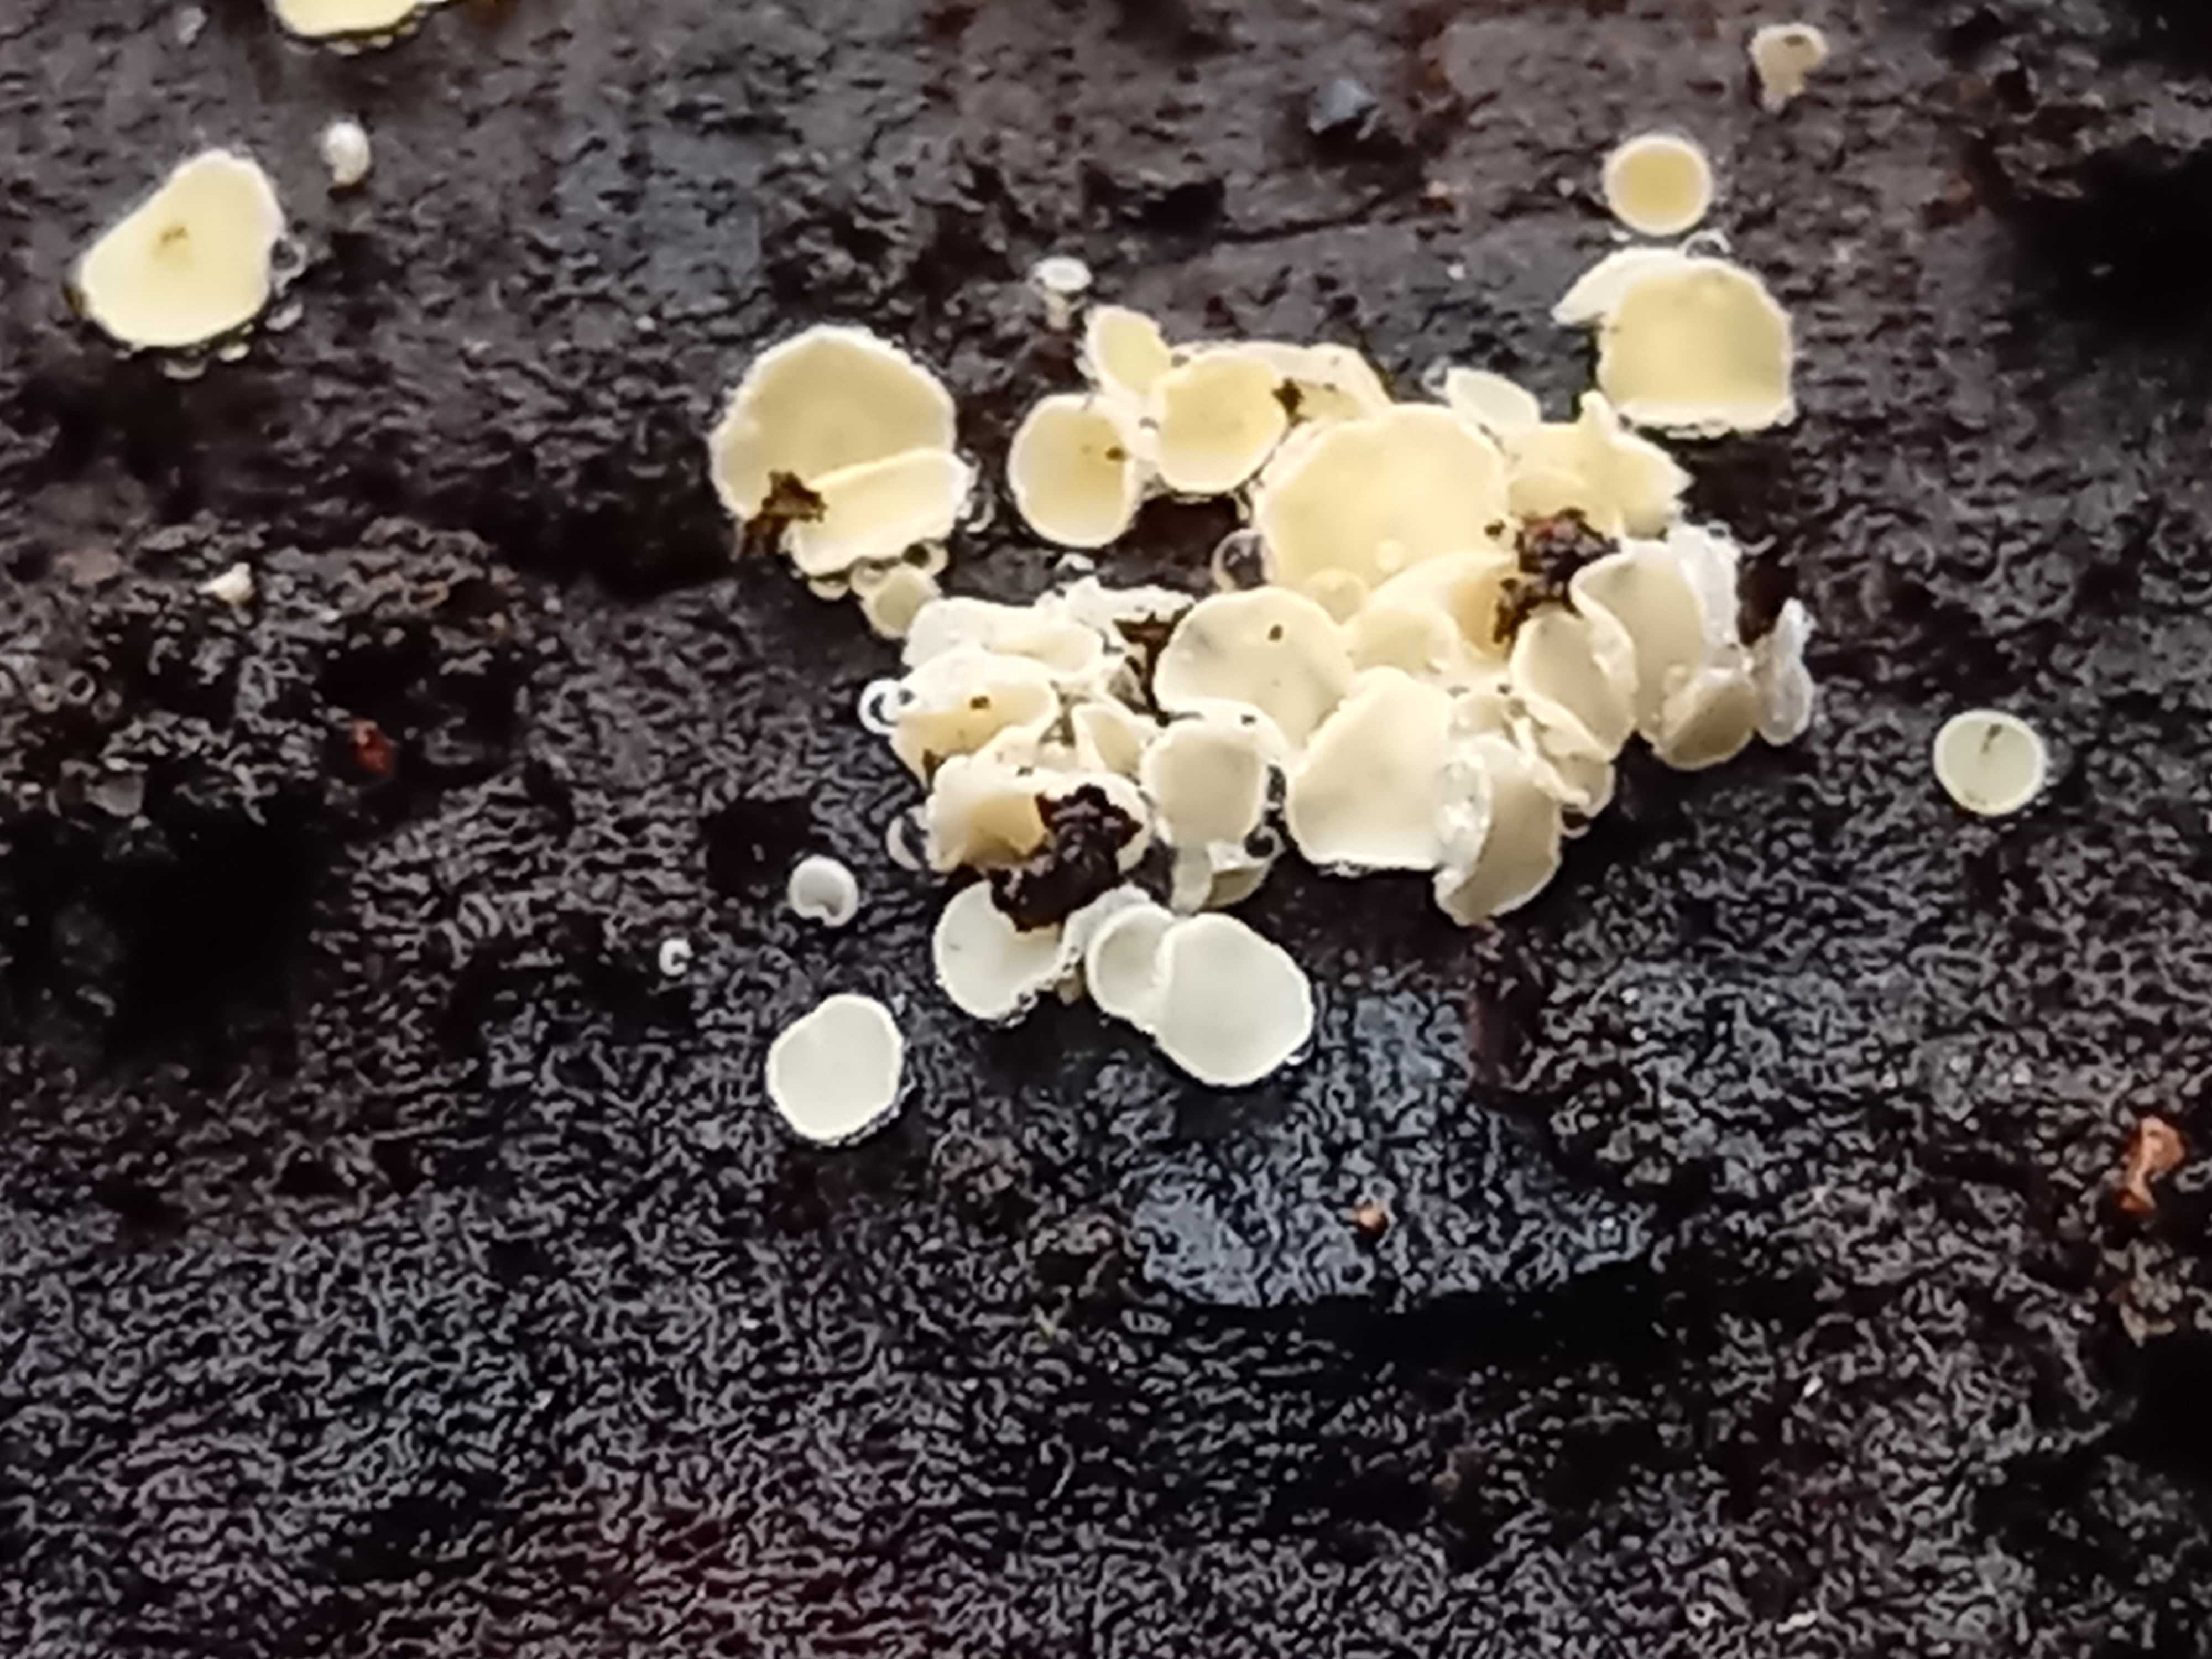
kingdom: Fungi
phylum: Ascomycota
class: Leotiomycetes
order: Helotiales
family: Lachnaceae
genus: Lachnum
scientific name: Lachnum
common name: frynseskive
